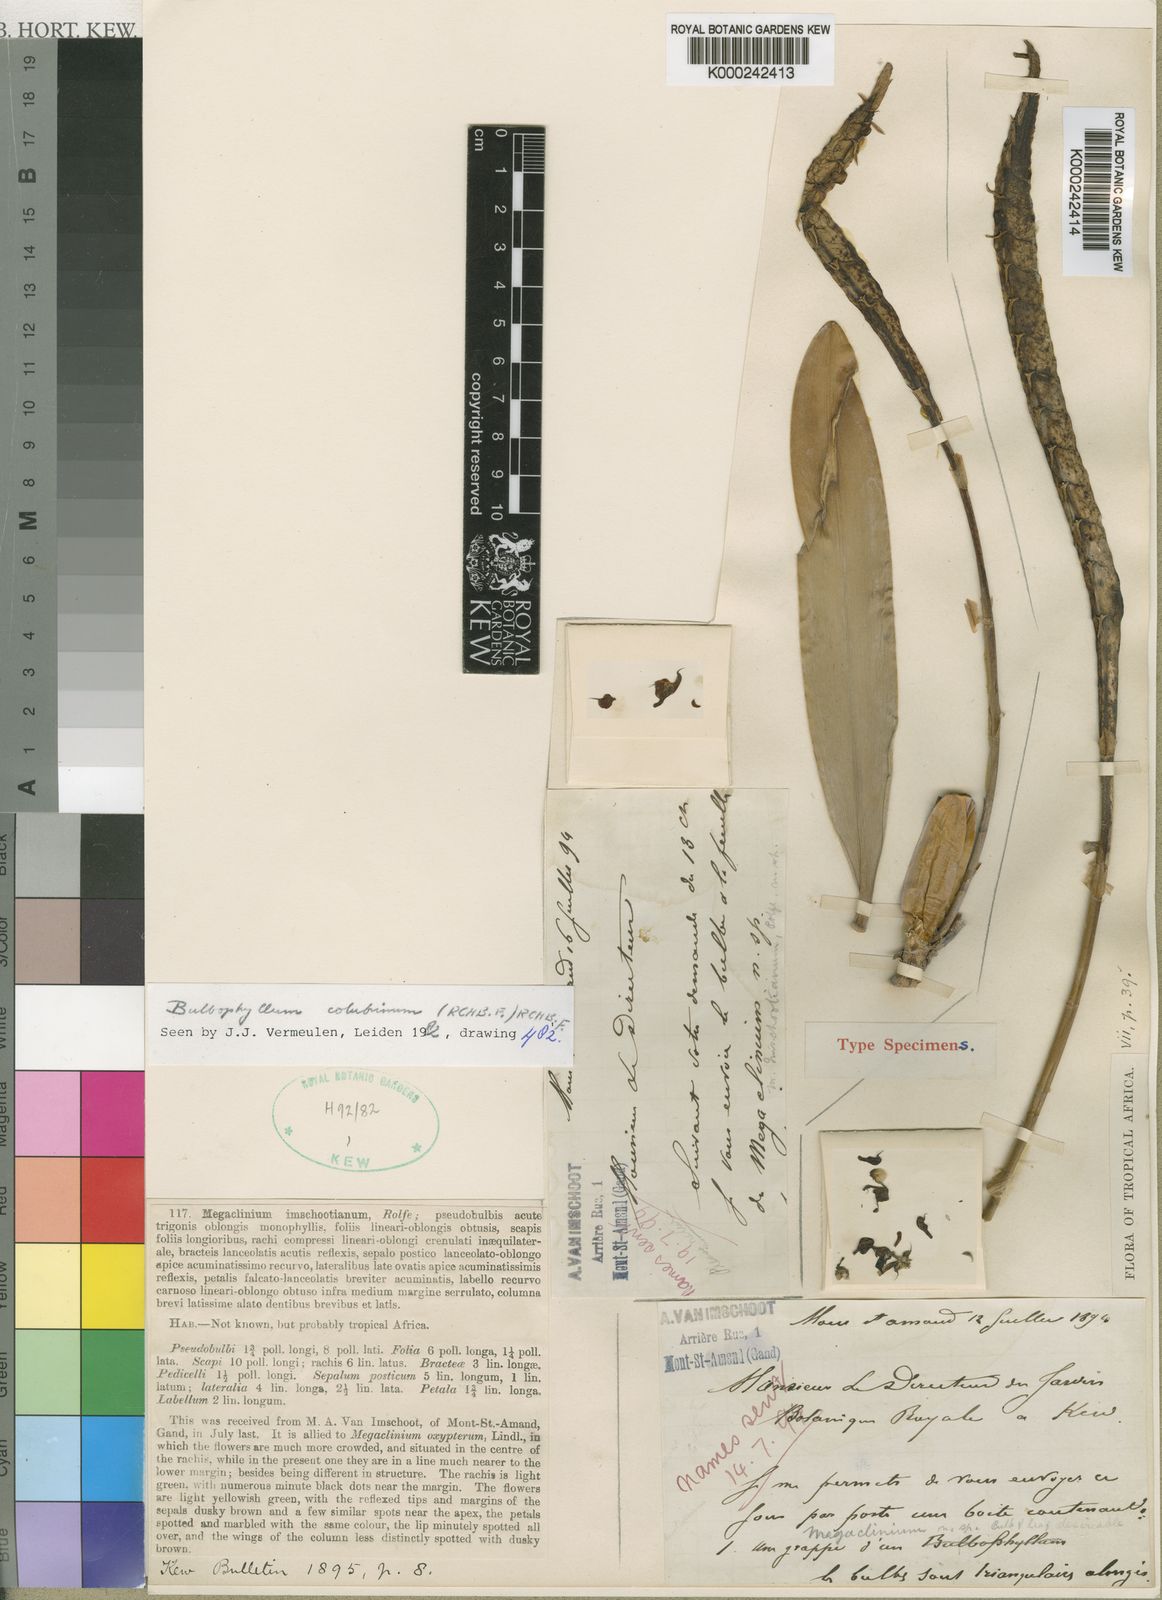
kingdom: Plantae
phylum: Tracheophyta
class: Liliopsida
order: Asparagales
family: Orchidaceae
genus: Bulbophyllum
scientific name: Bulbophyllum colubrinum
